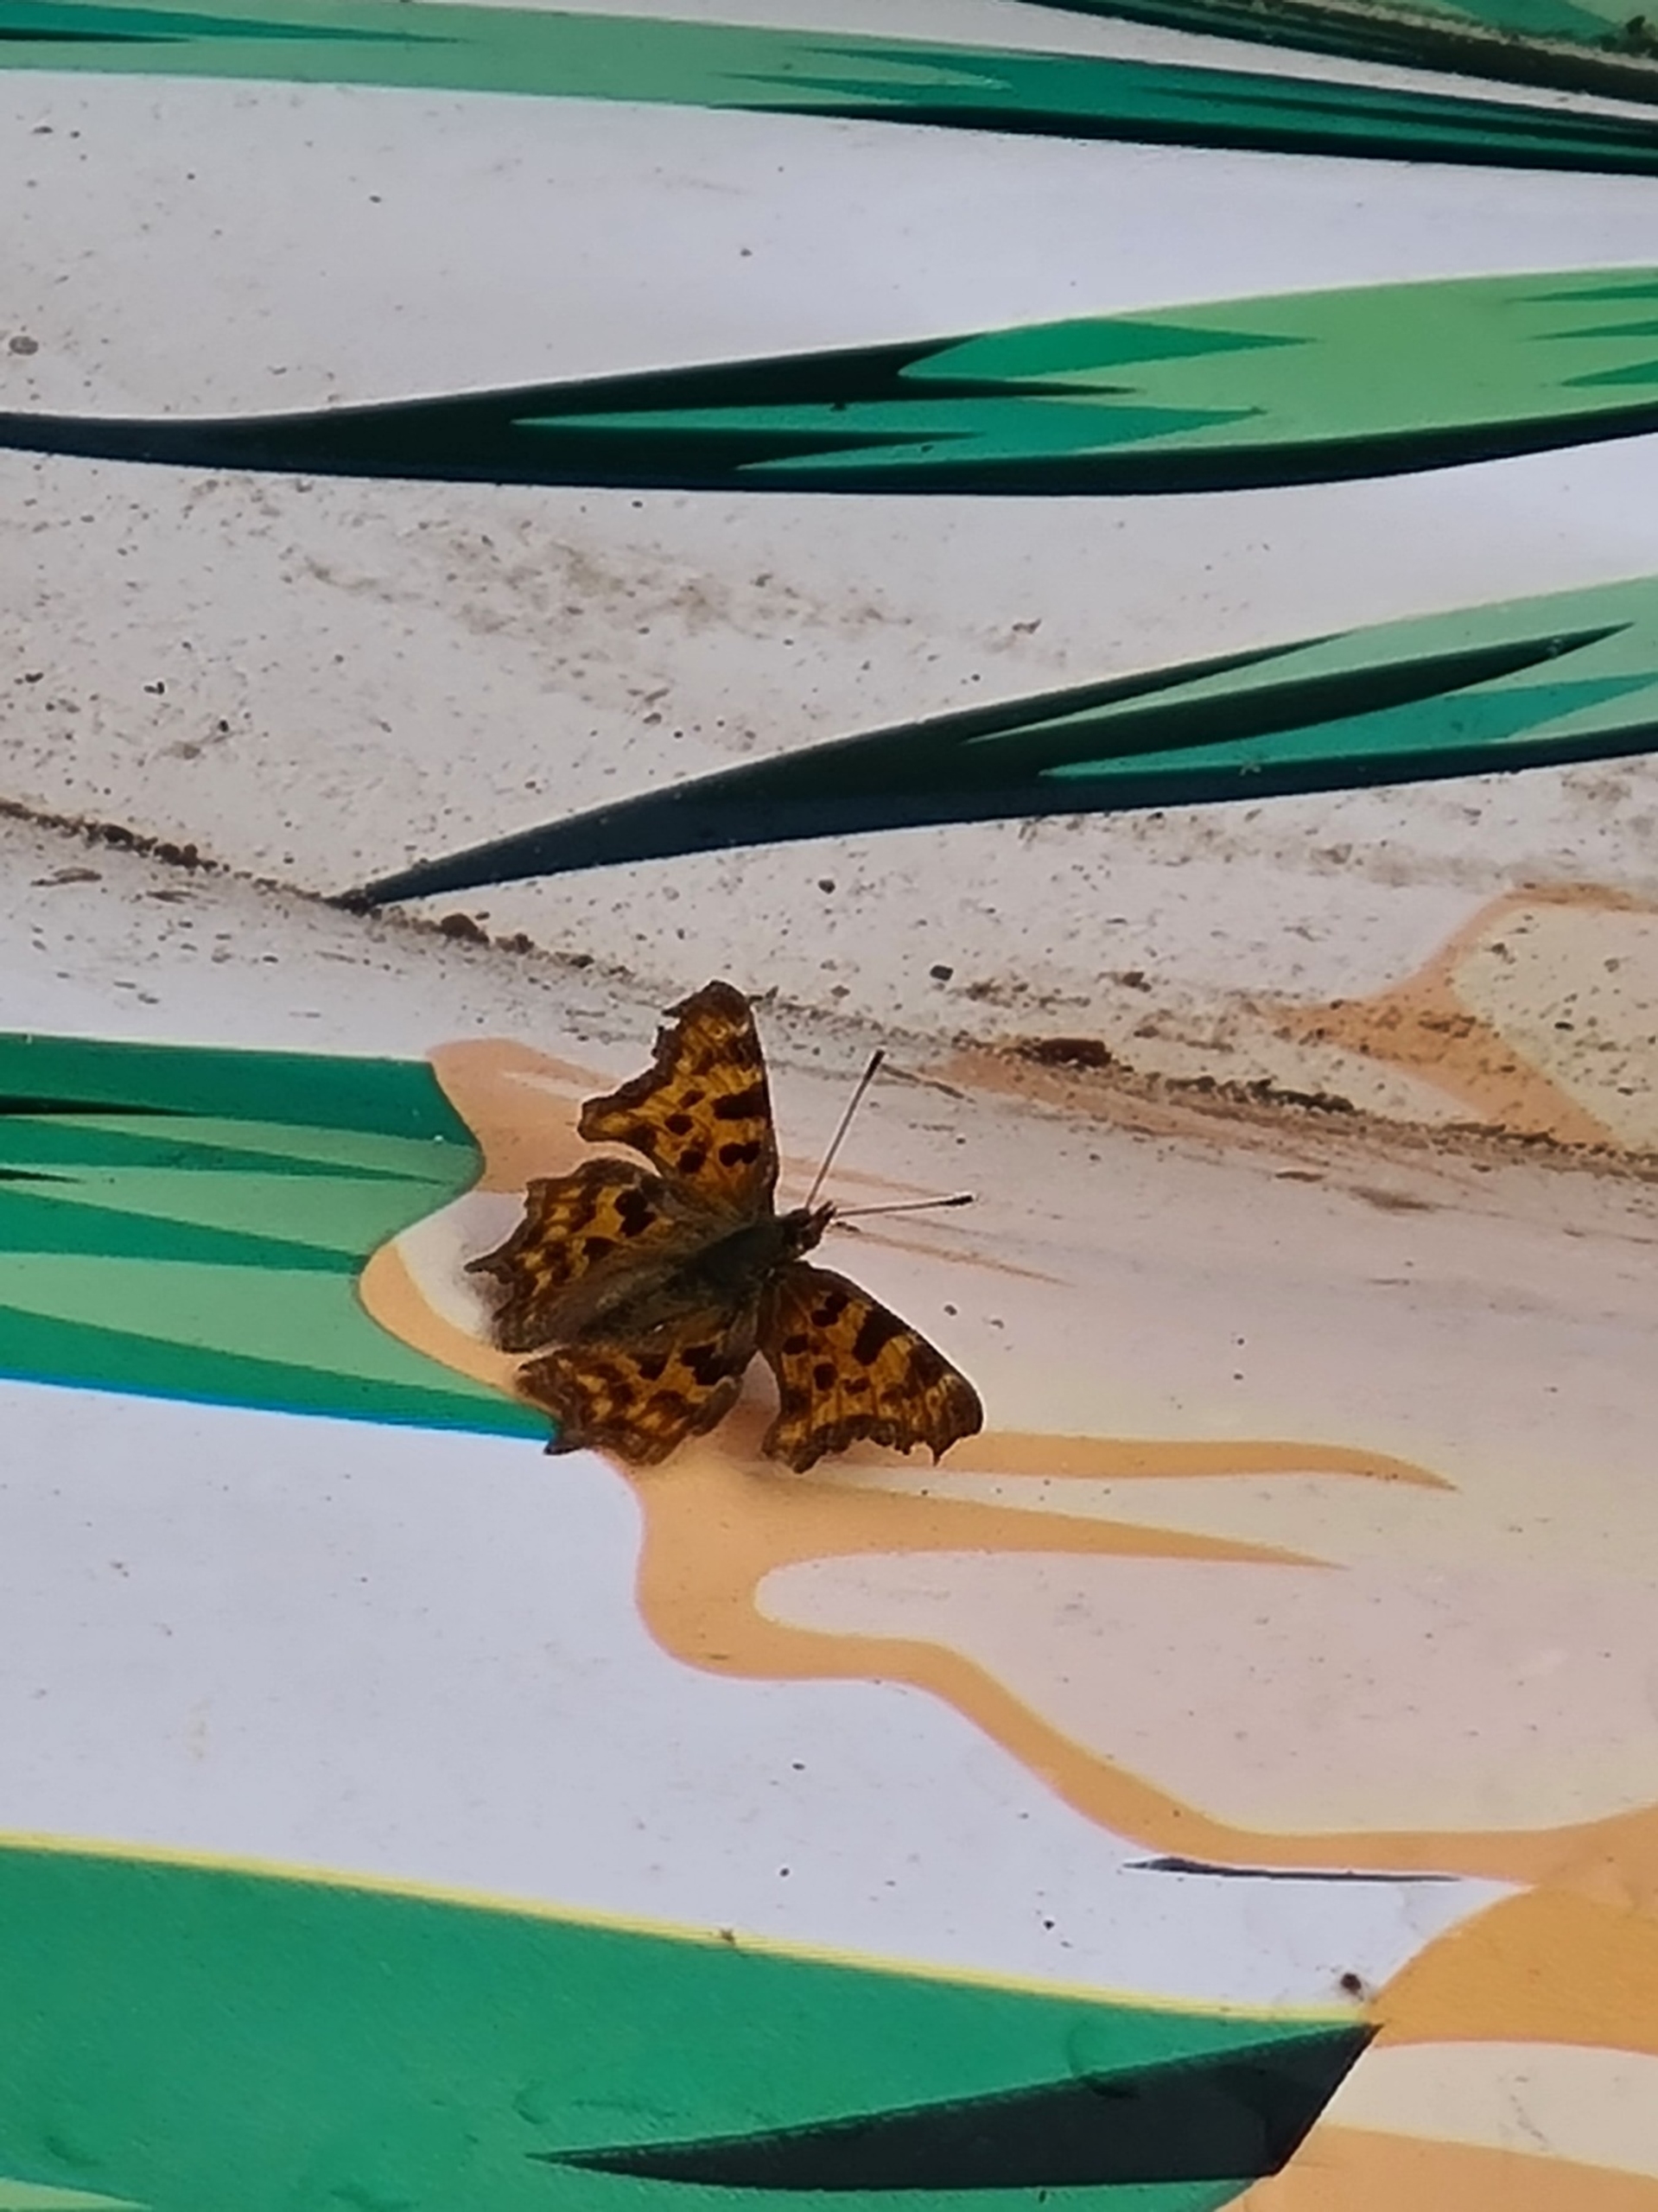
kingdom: Animalia
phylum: Arthropoda
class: Insecta
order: Lepidoptera
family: Nymphalidae
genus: Polygonia
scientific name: Polygonia c-album
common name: Det hvide C
